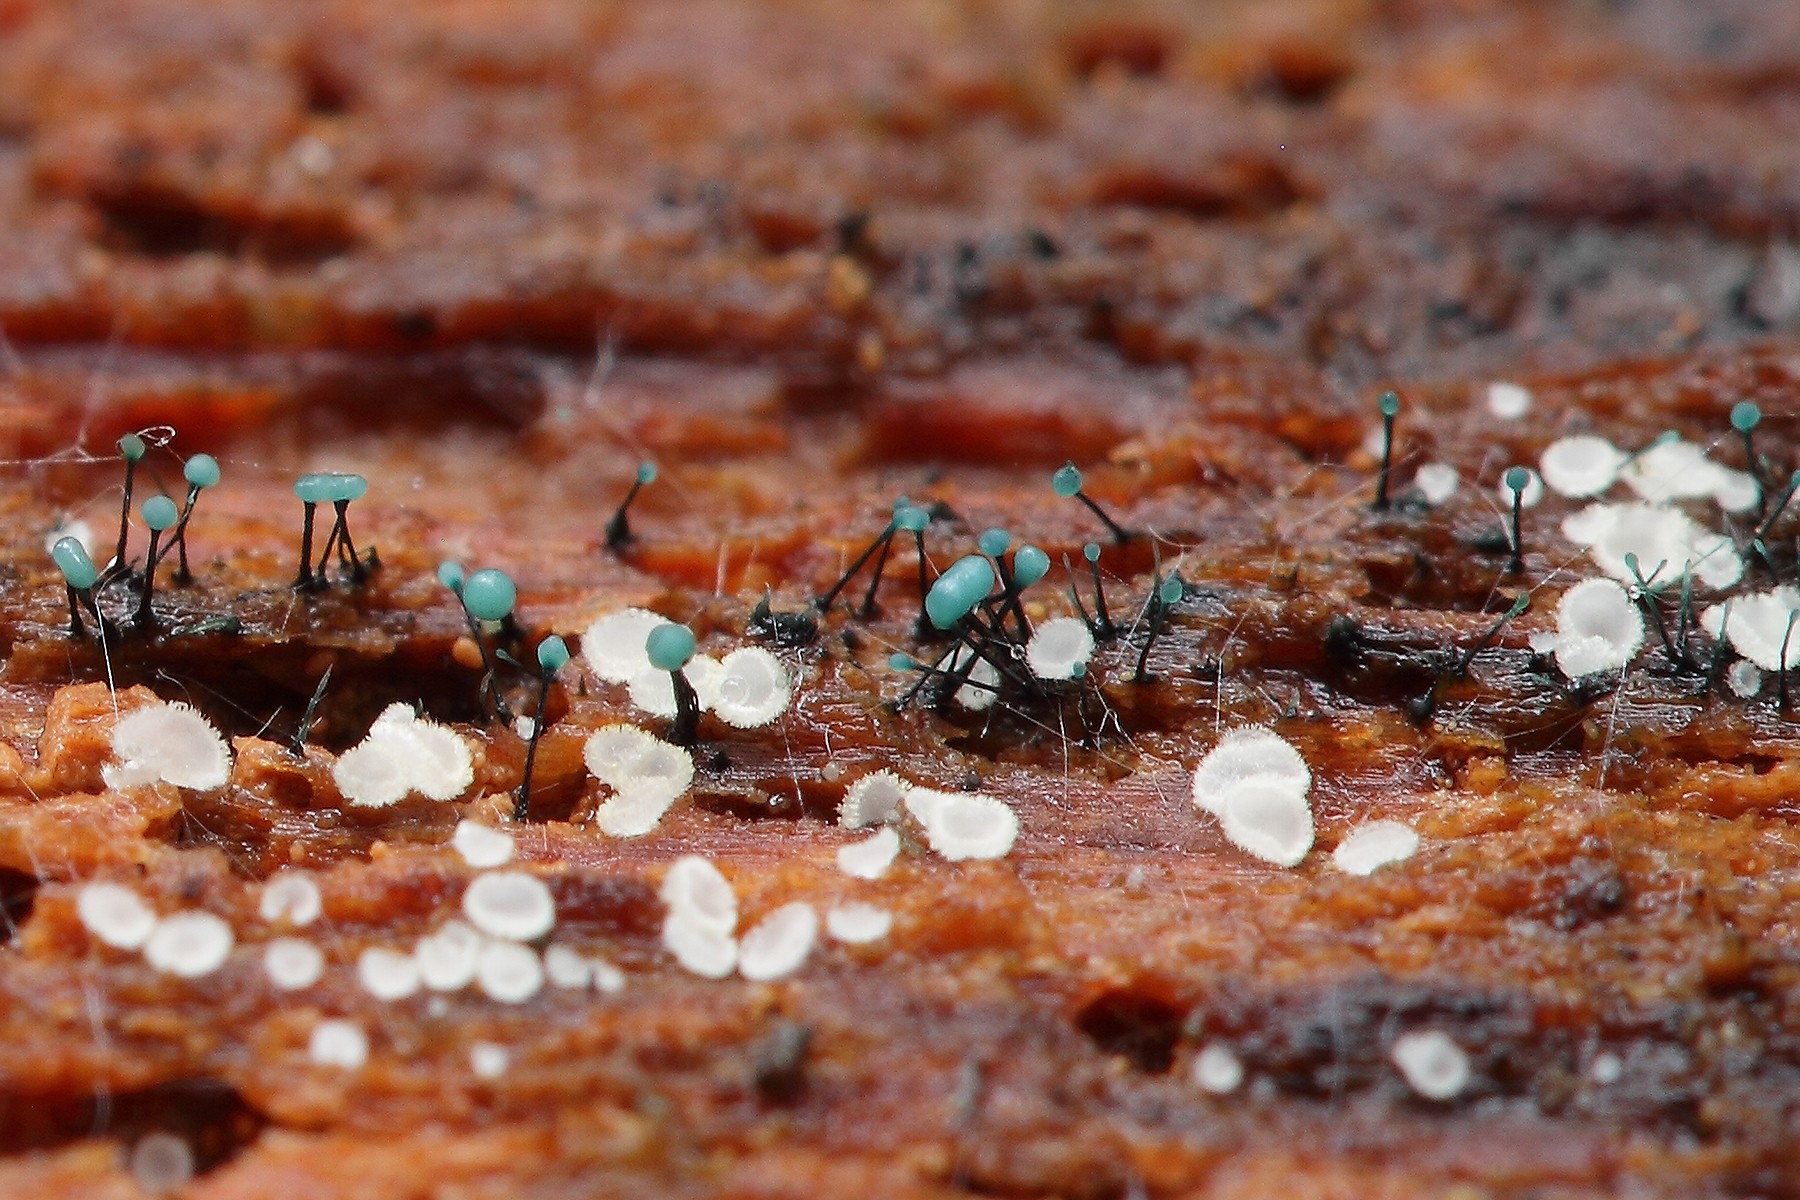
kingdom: Fungi
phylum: Ascomycota
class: Leotiomycetes
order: Leotiales
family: Tympanidaceae
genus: Dendrostilbella
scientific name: Dendrostilbella smaragdina
